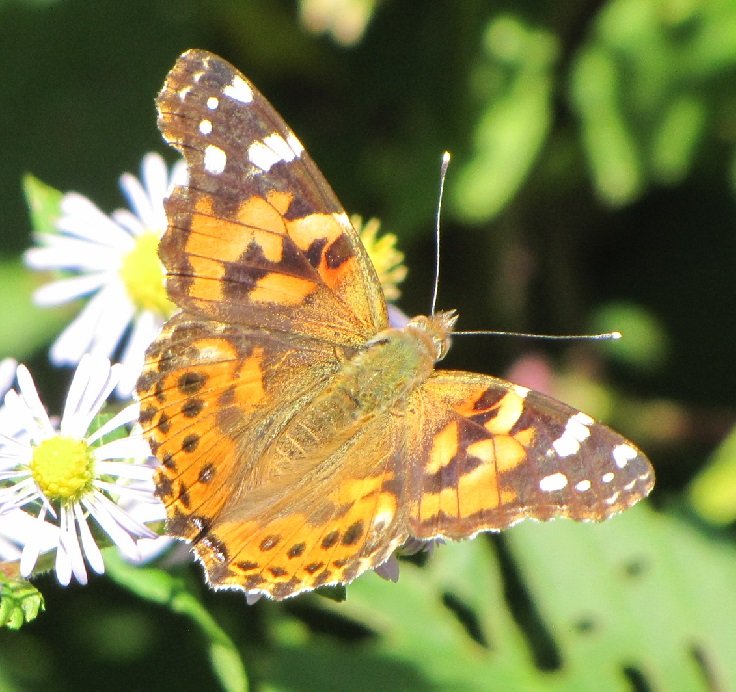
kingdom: Animalia
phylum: Arthropoda
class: Insecta
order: Lepidoptera
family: Nymphalidae
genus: Vanessa
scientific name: Vanessa cardui
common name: Painted Lady
